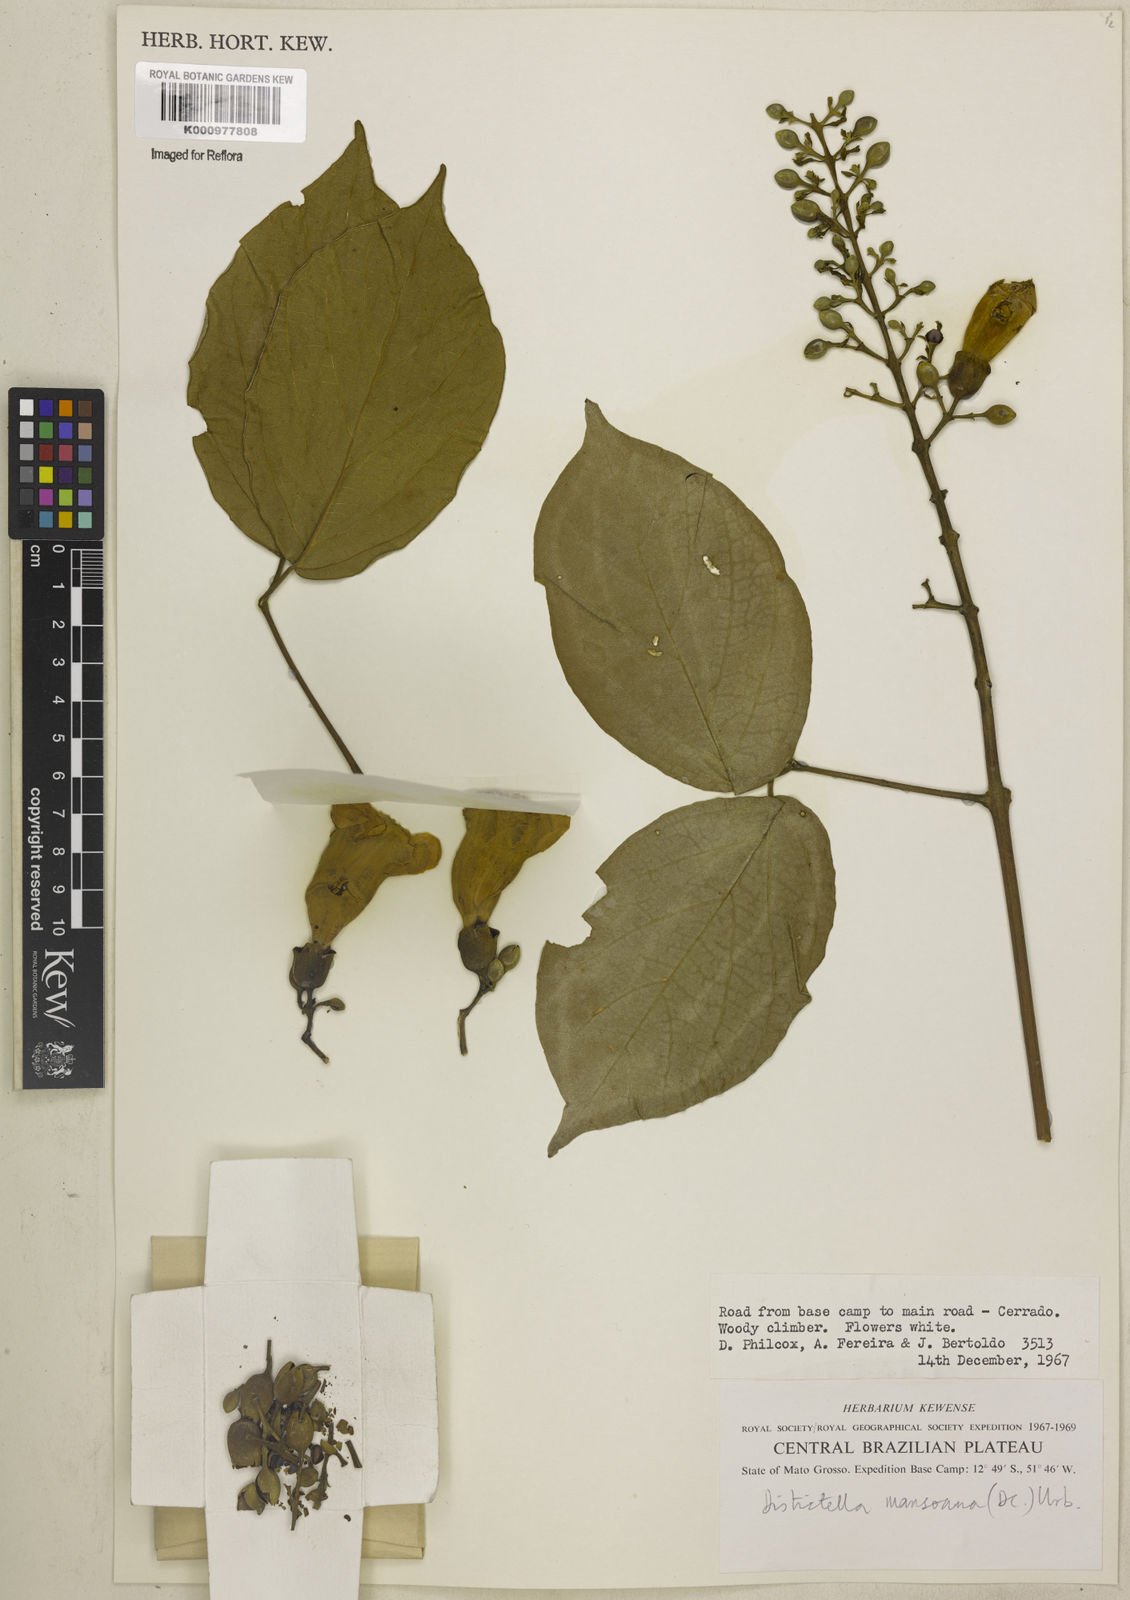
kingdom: Plantae
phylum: Tracheophyta
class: Magnoliopsida
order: Lamiales
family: Bignoniaceae
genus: Amphilophium
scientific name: Amphilophium mansoanum
